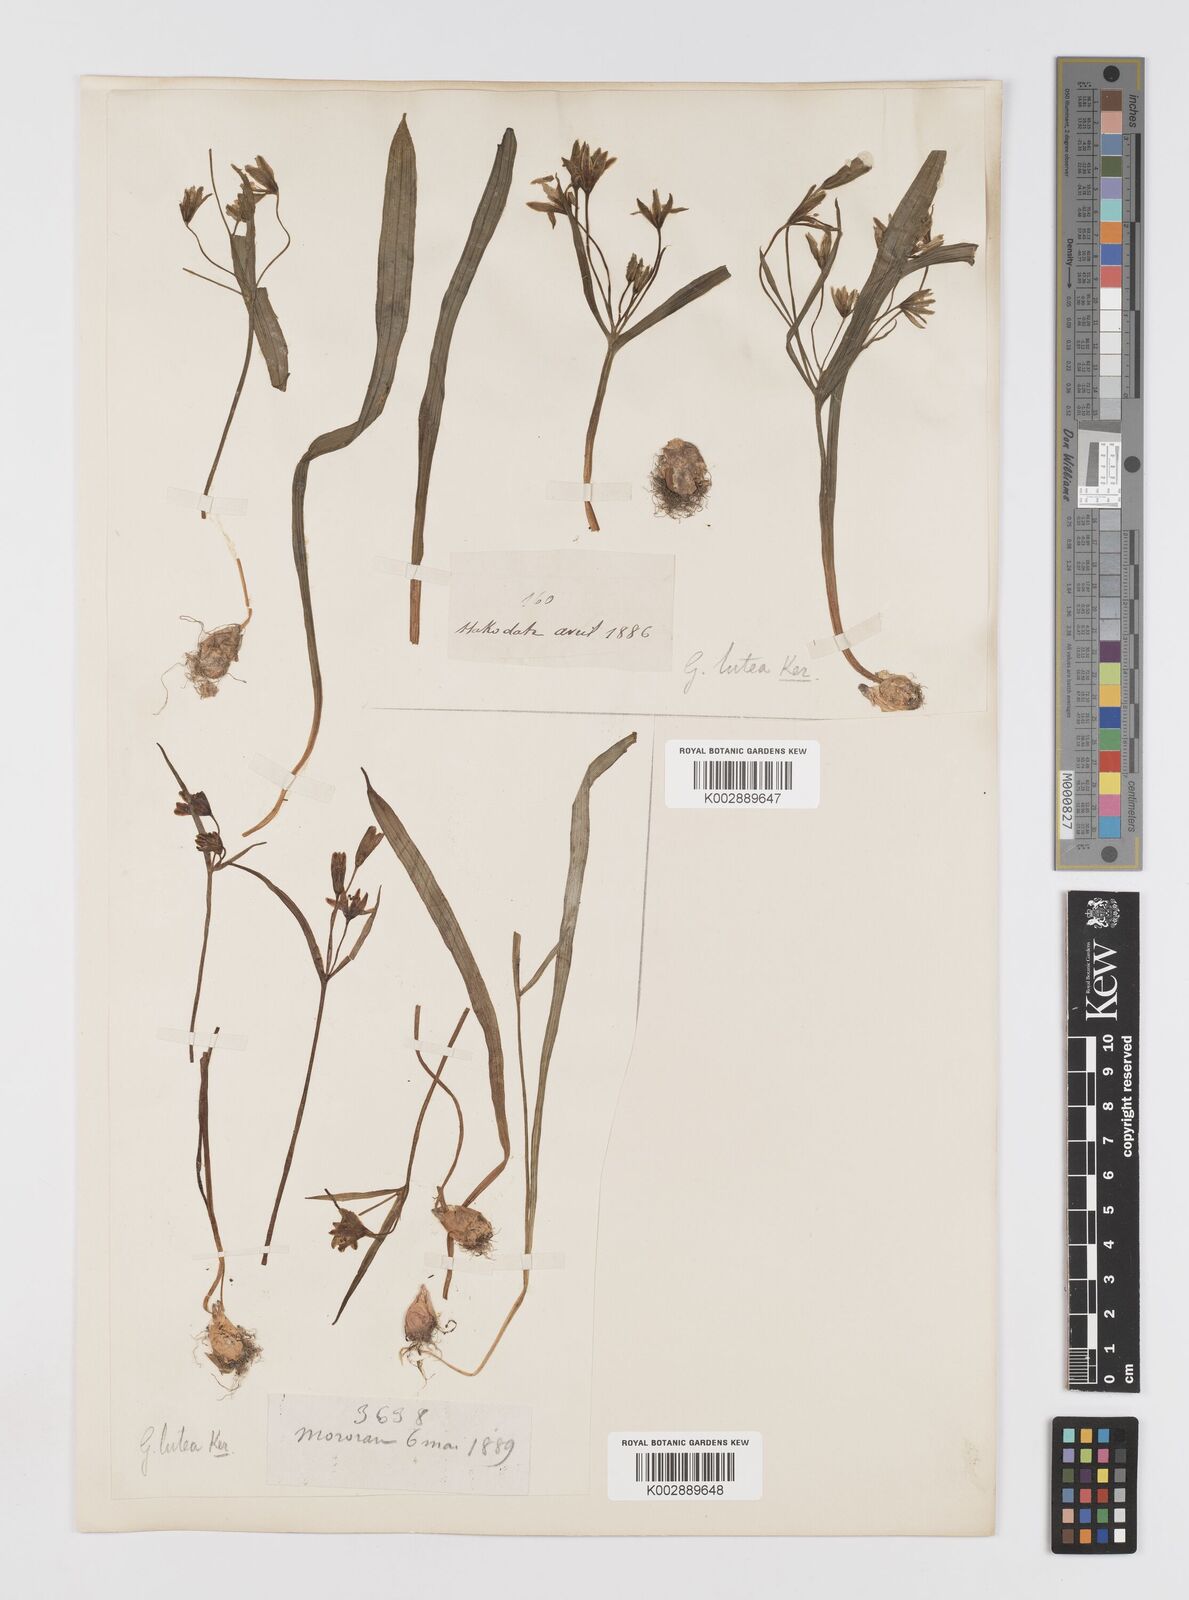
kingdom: Plantae
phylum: Tracheophyta
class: Liliopsida
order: Liliales
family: Liliaceae
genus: Gagea
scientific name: Gagea lutea
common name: Yellow star-of-bethlehem
